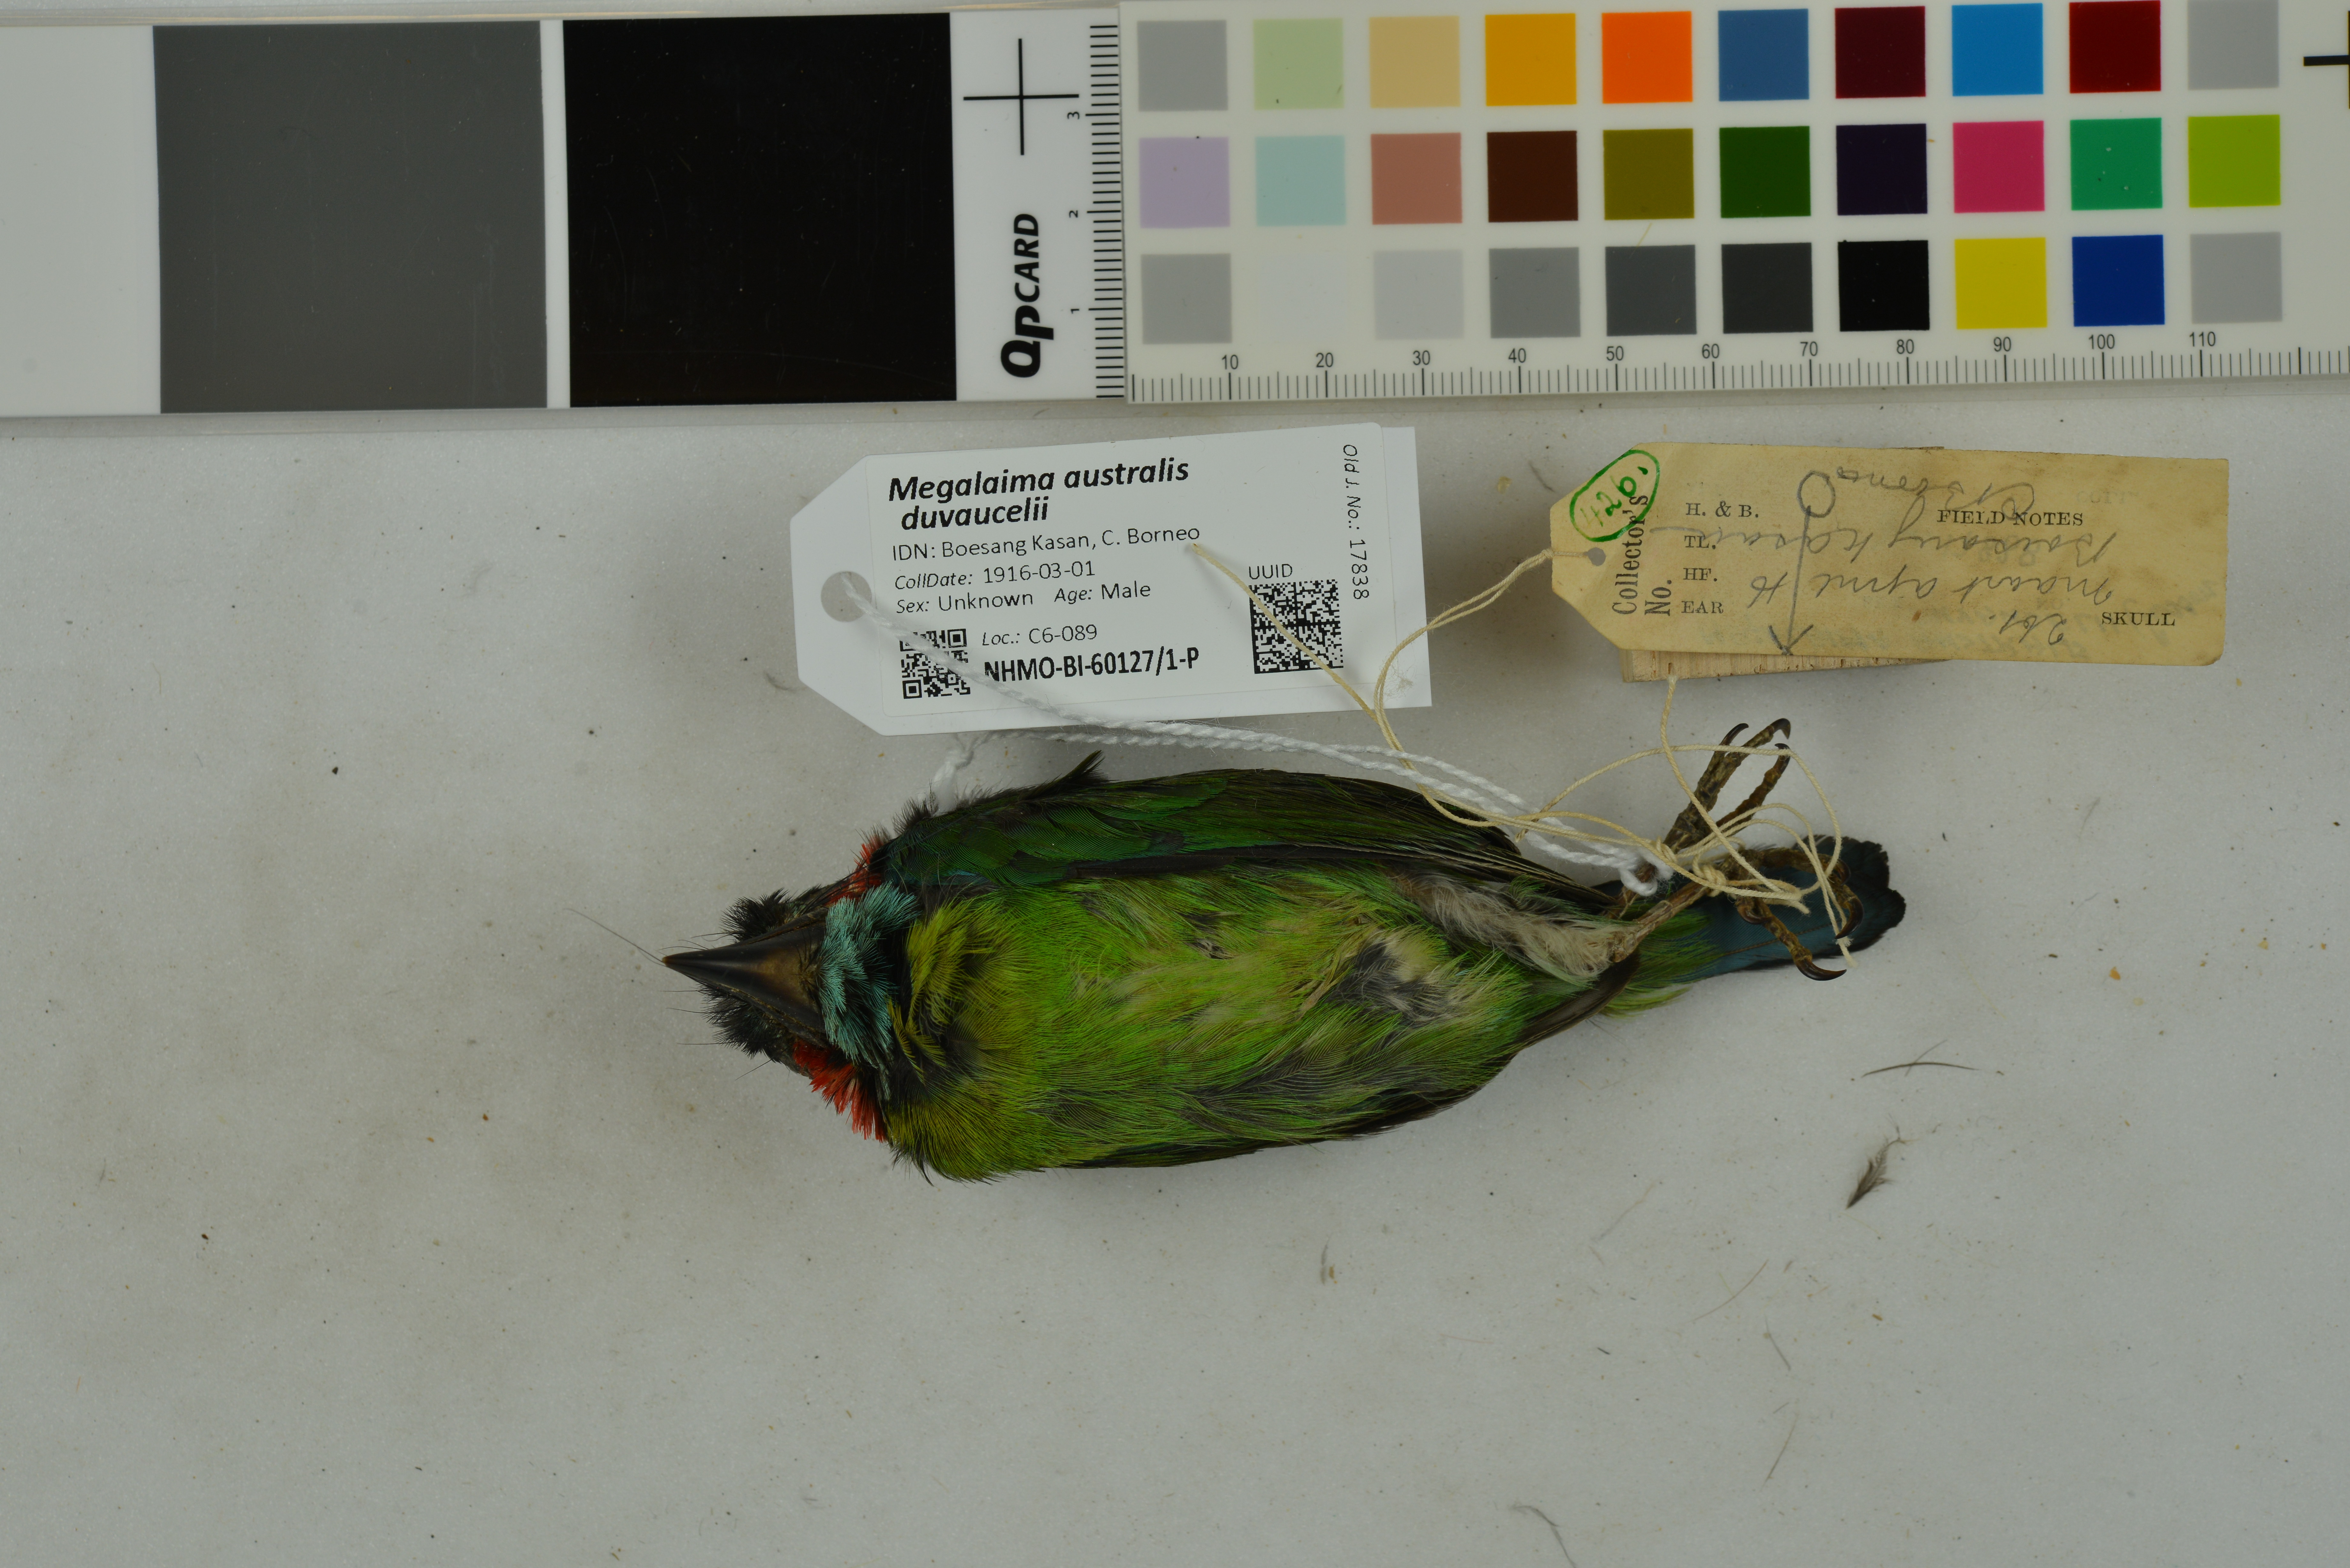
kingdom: Animalia
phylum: Chordata
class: Aves
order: Piciformes
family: Megalaimidae
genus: Psilopogon
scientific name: Psilopogon duvaucelii
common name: Blue-eared barbet
